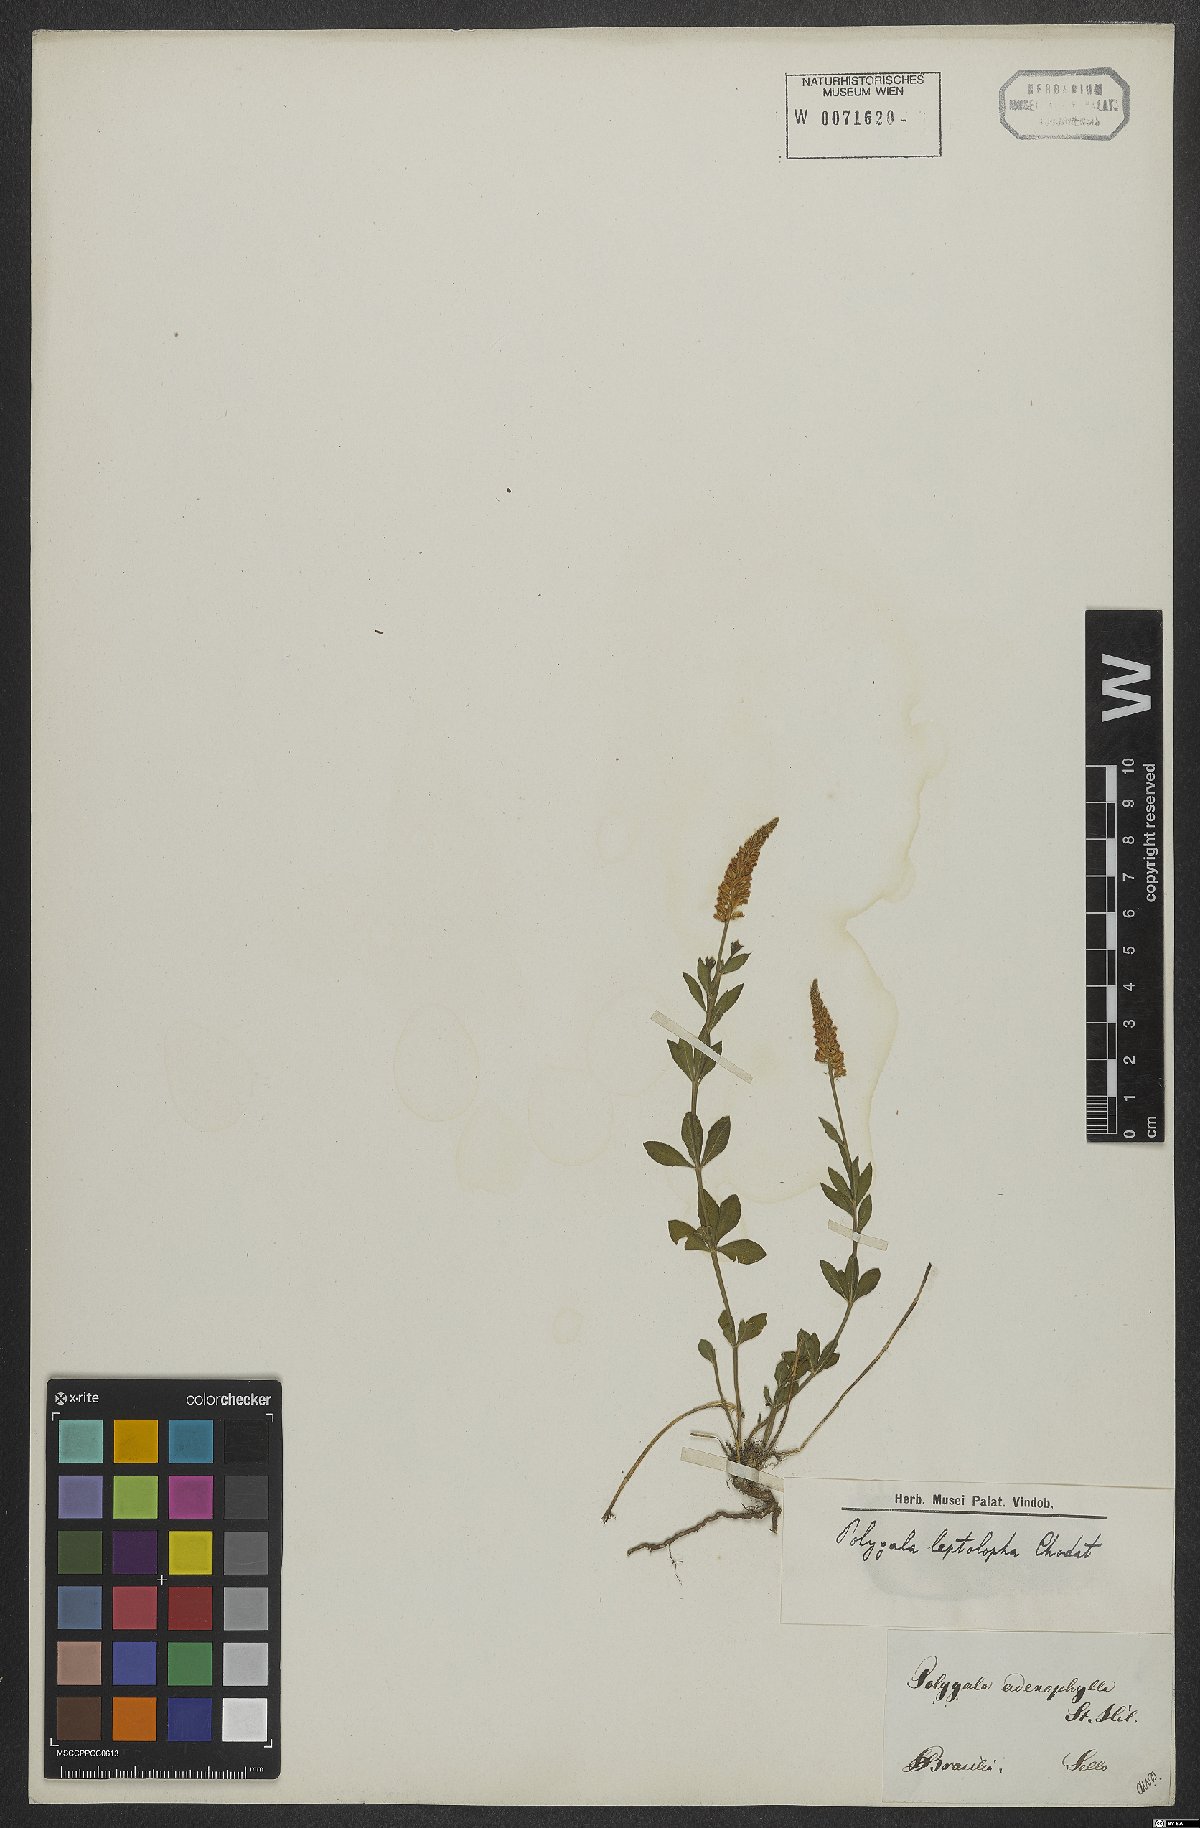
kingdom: Plantae
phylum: Tracheophyta
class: Magnoliopsida
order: Fabales
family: Polygalaceae
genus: Polygala
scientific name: Polygala adenophylla
